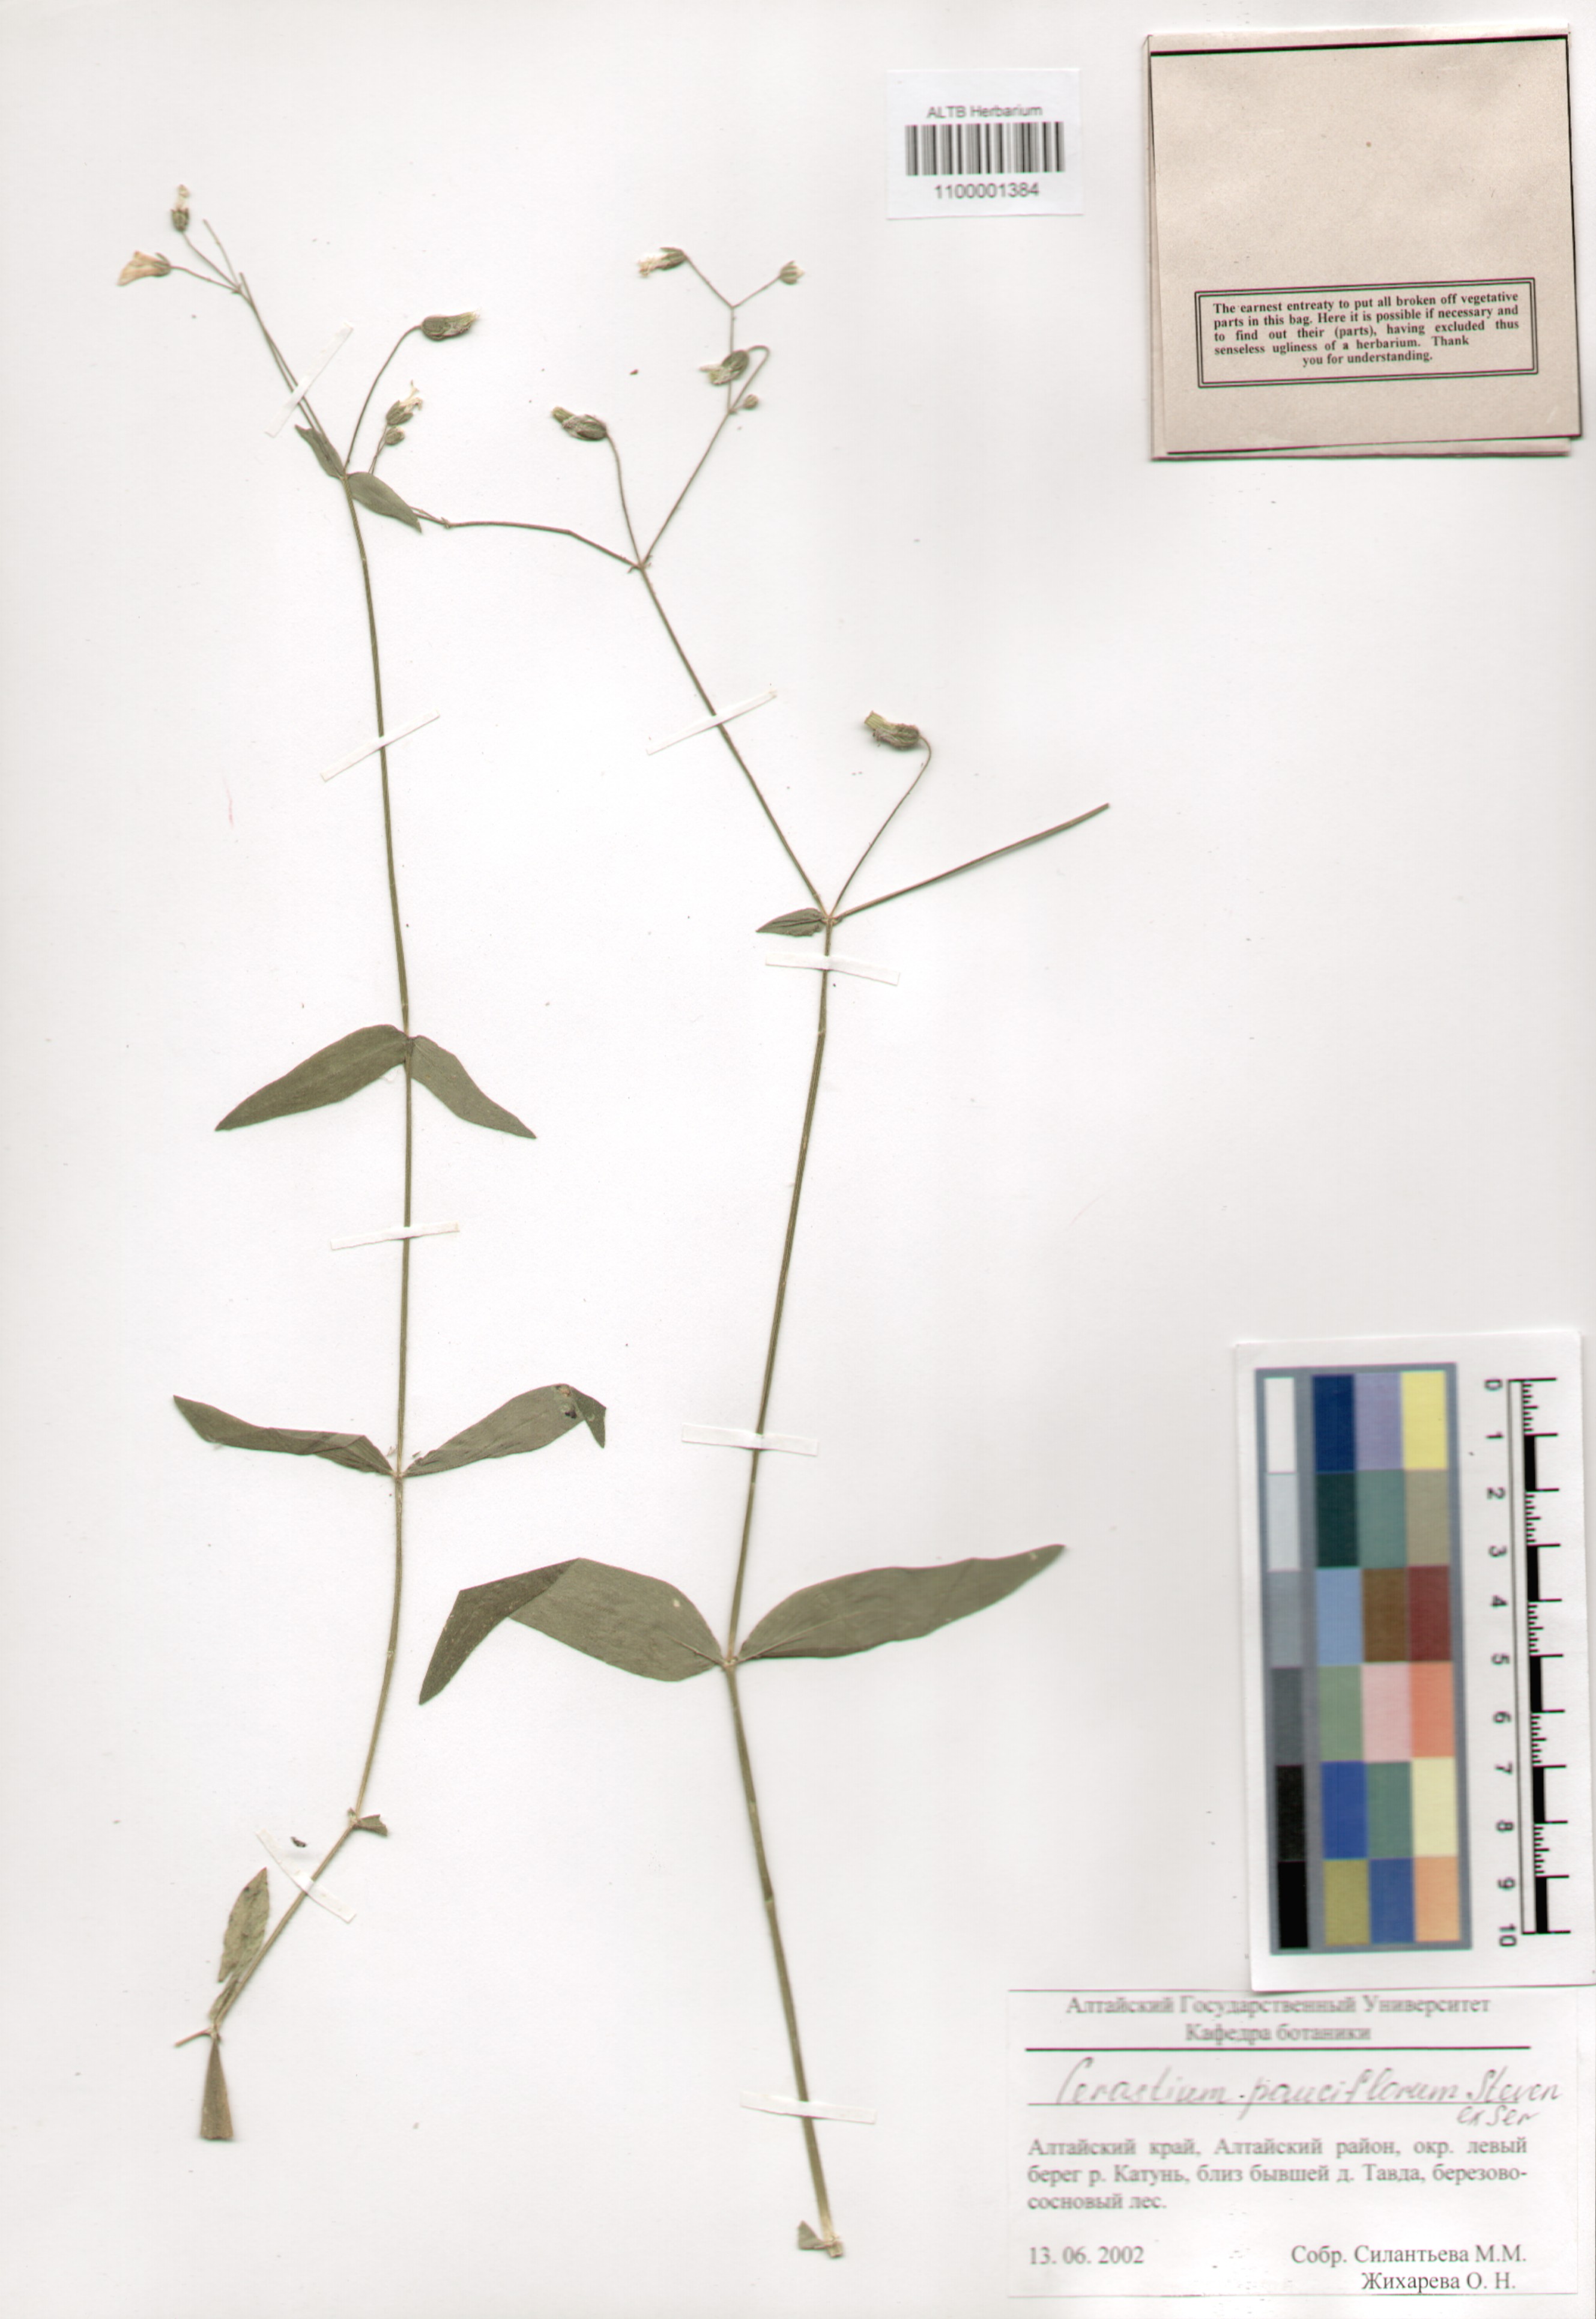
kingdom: Plantae
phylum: Tracheophyta
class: Magnoliopsida
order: Caryophyllales
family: Caryophyllaceae
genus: Cerastium
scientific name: Cerastium pauciflorum
